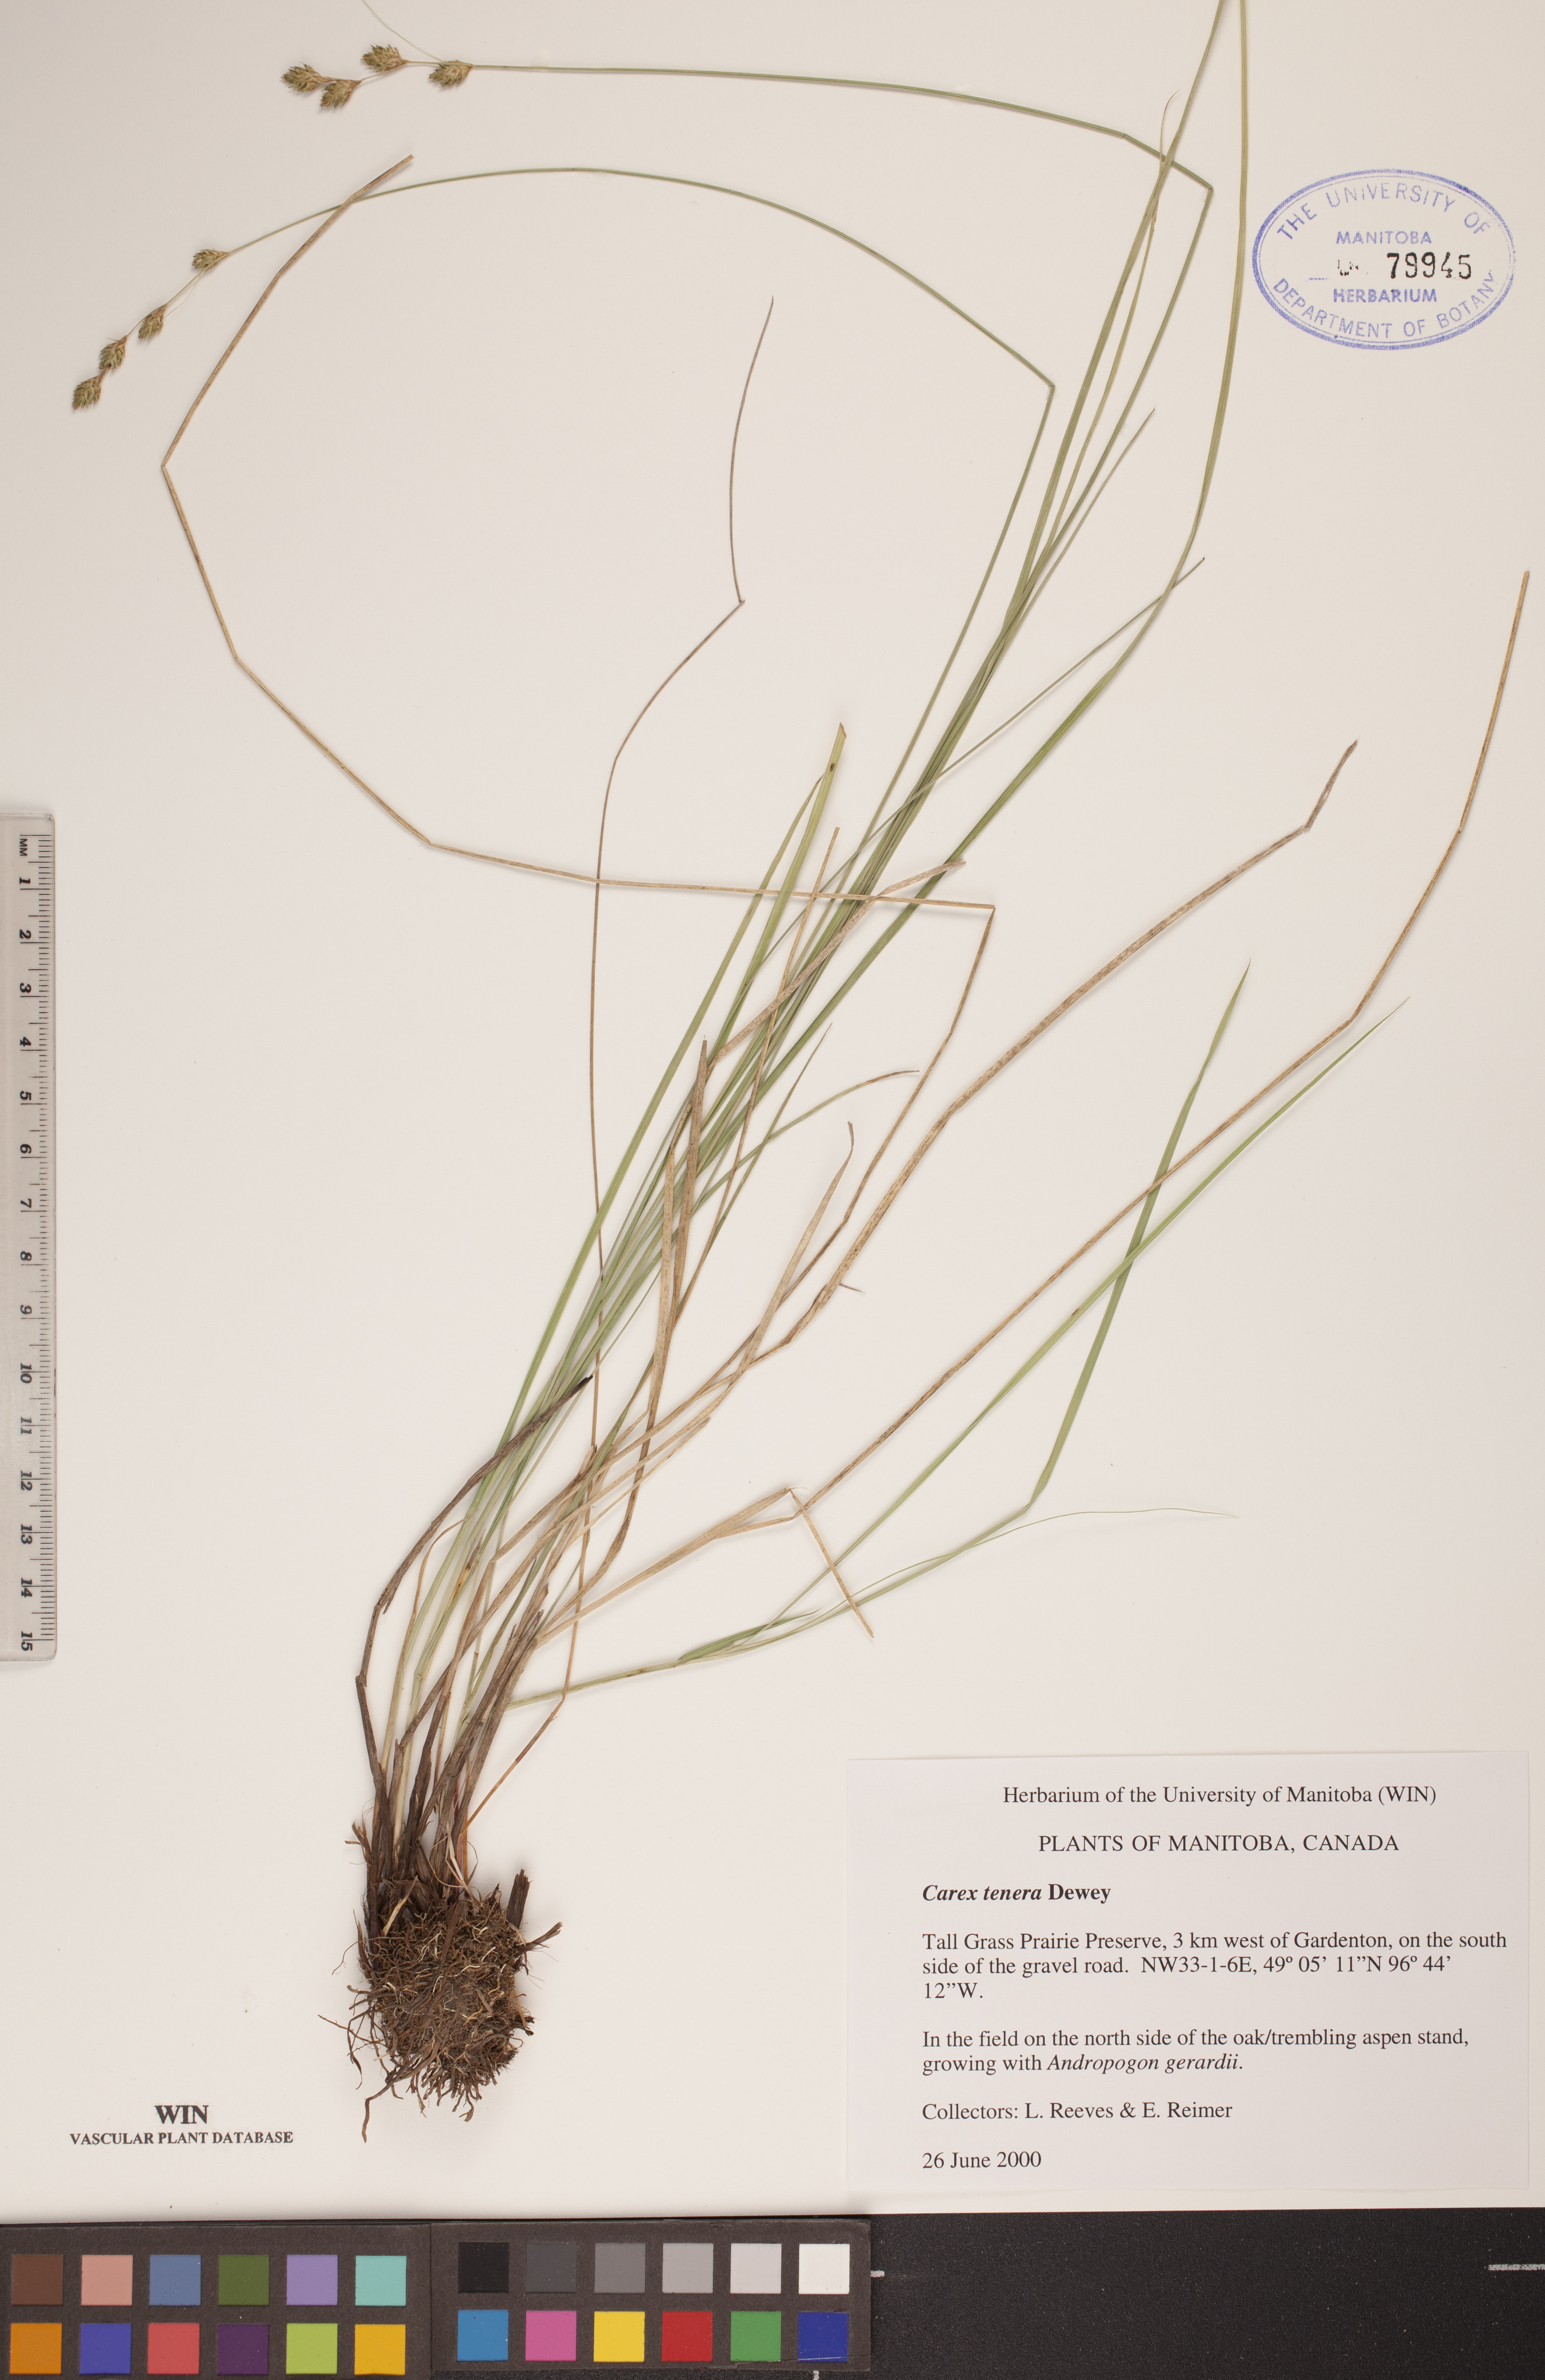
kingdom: Plantae
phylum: Tracheophyta
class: Liliopsida
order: Poales
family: Cyperaceae
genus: Carex
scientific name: Carex tenera
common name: Broad-fruited sedge
